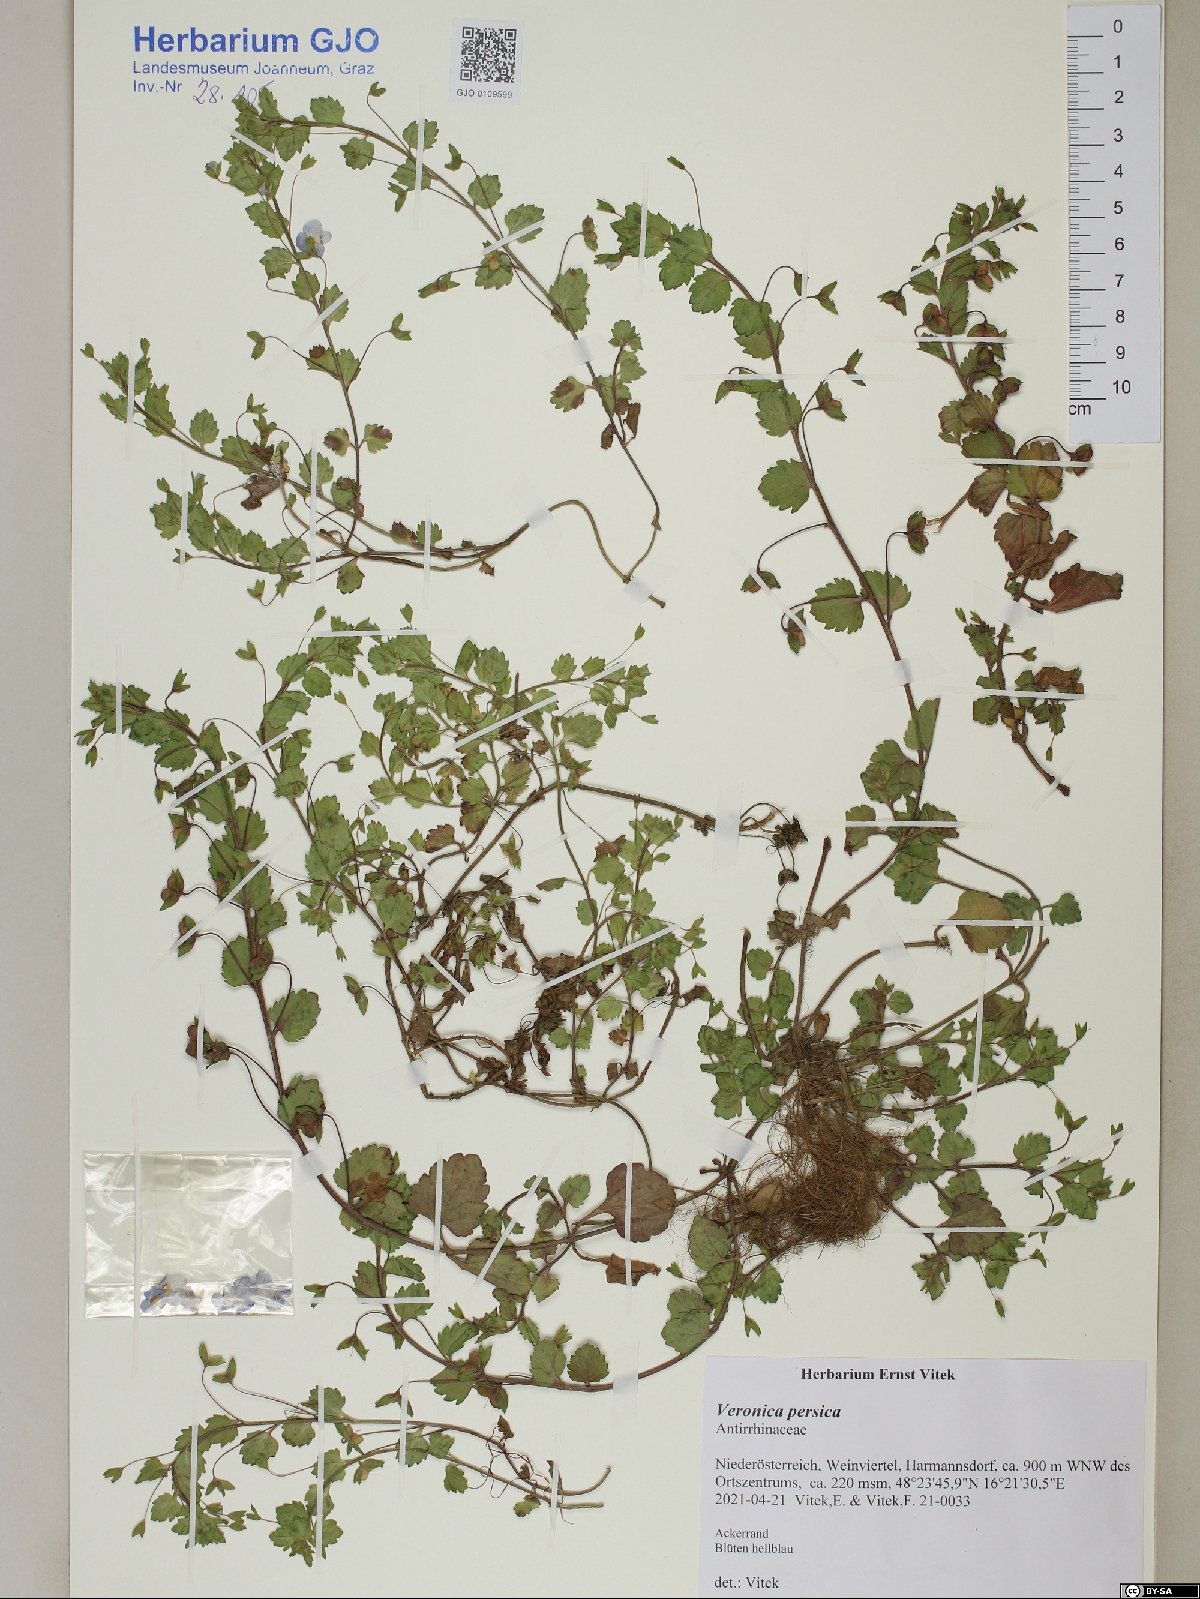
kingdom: Plantae
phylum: Tracheophyta
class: Magnoliopsida
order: Lamiales
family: Plantaginaceae
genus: Veronica
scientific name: Veronica persica
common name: Common field-speedwell
